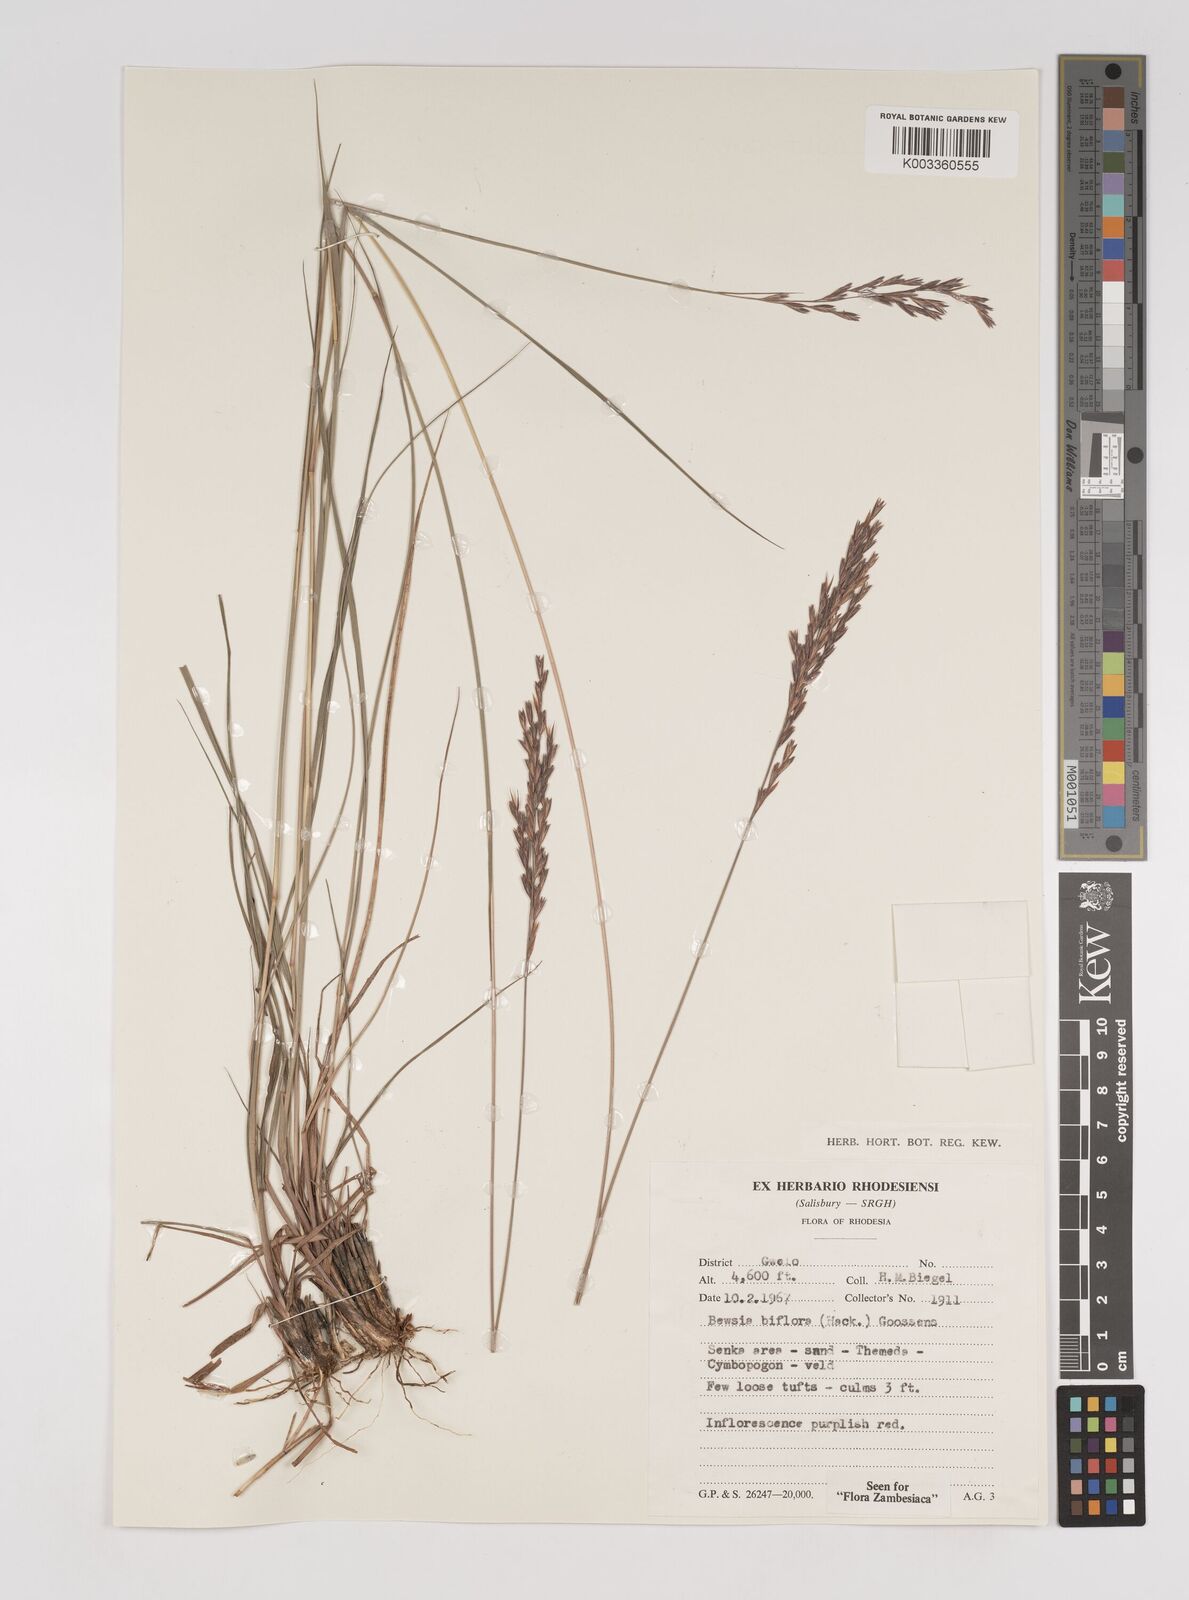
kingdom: Plantae
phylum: Tracheophyta
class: Liliopsida
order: Poales
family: Poaceae
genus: Bewsia
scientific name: Bewsia biflora
